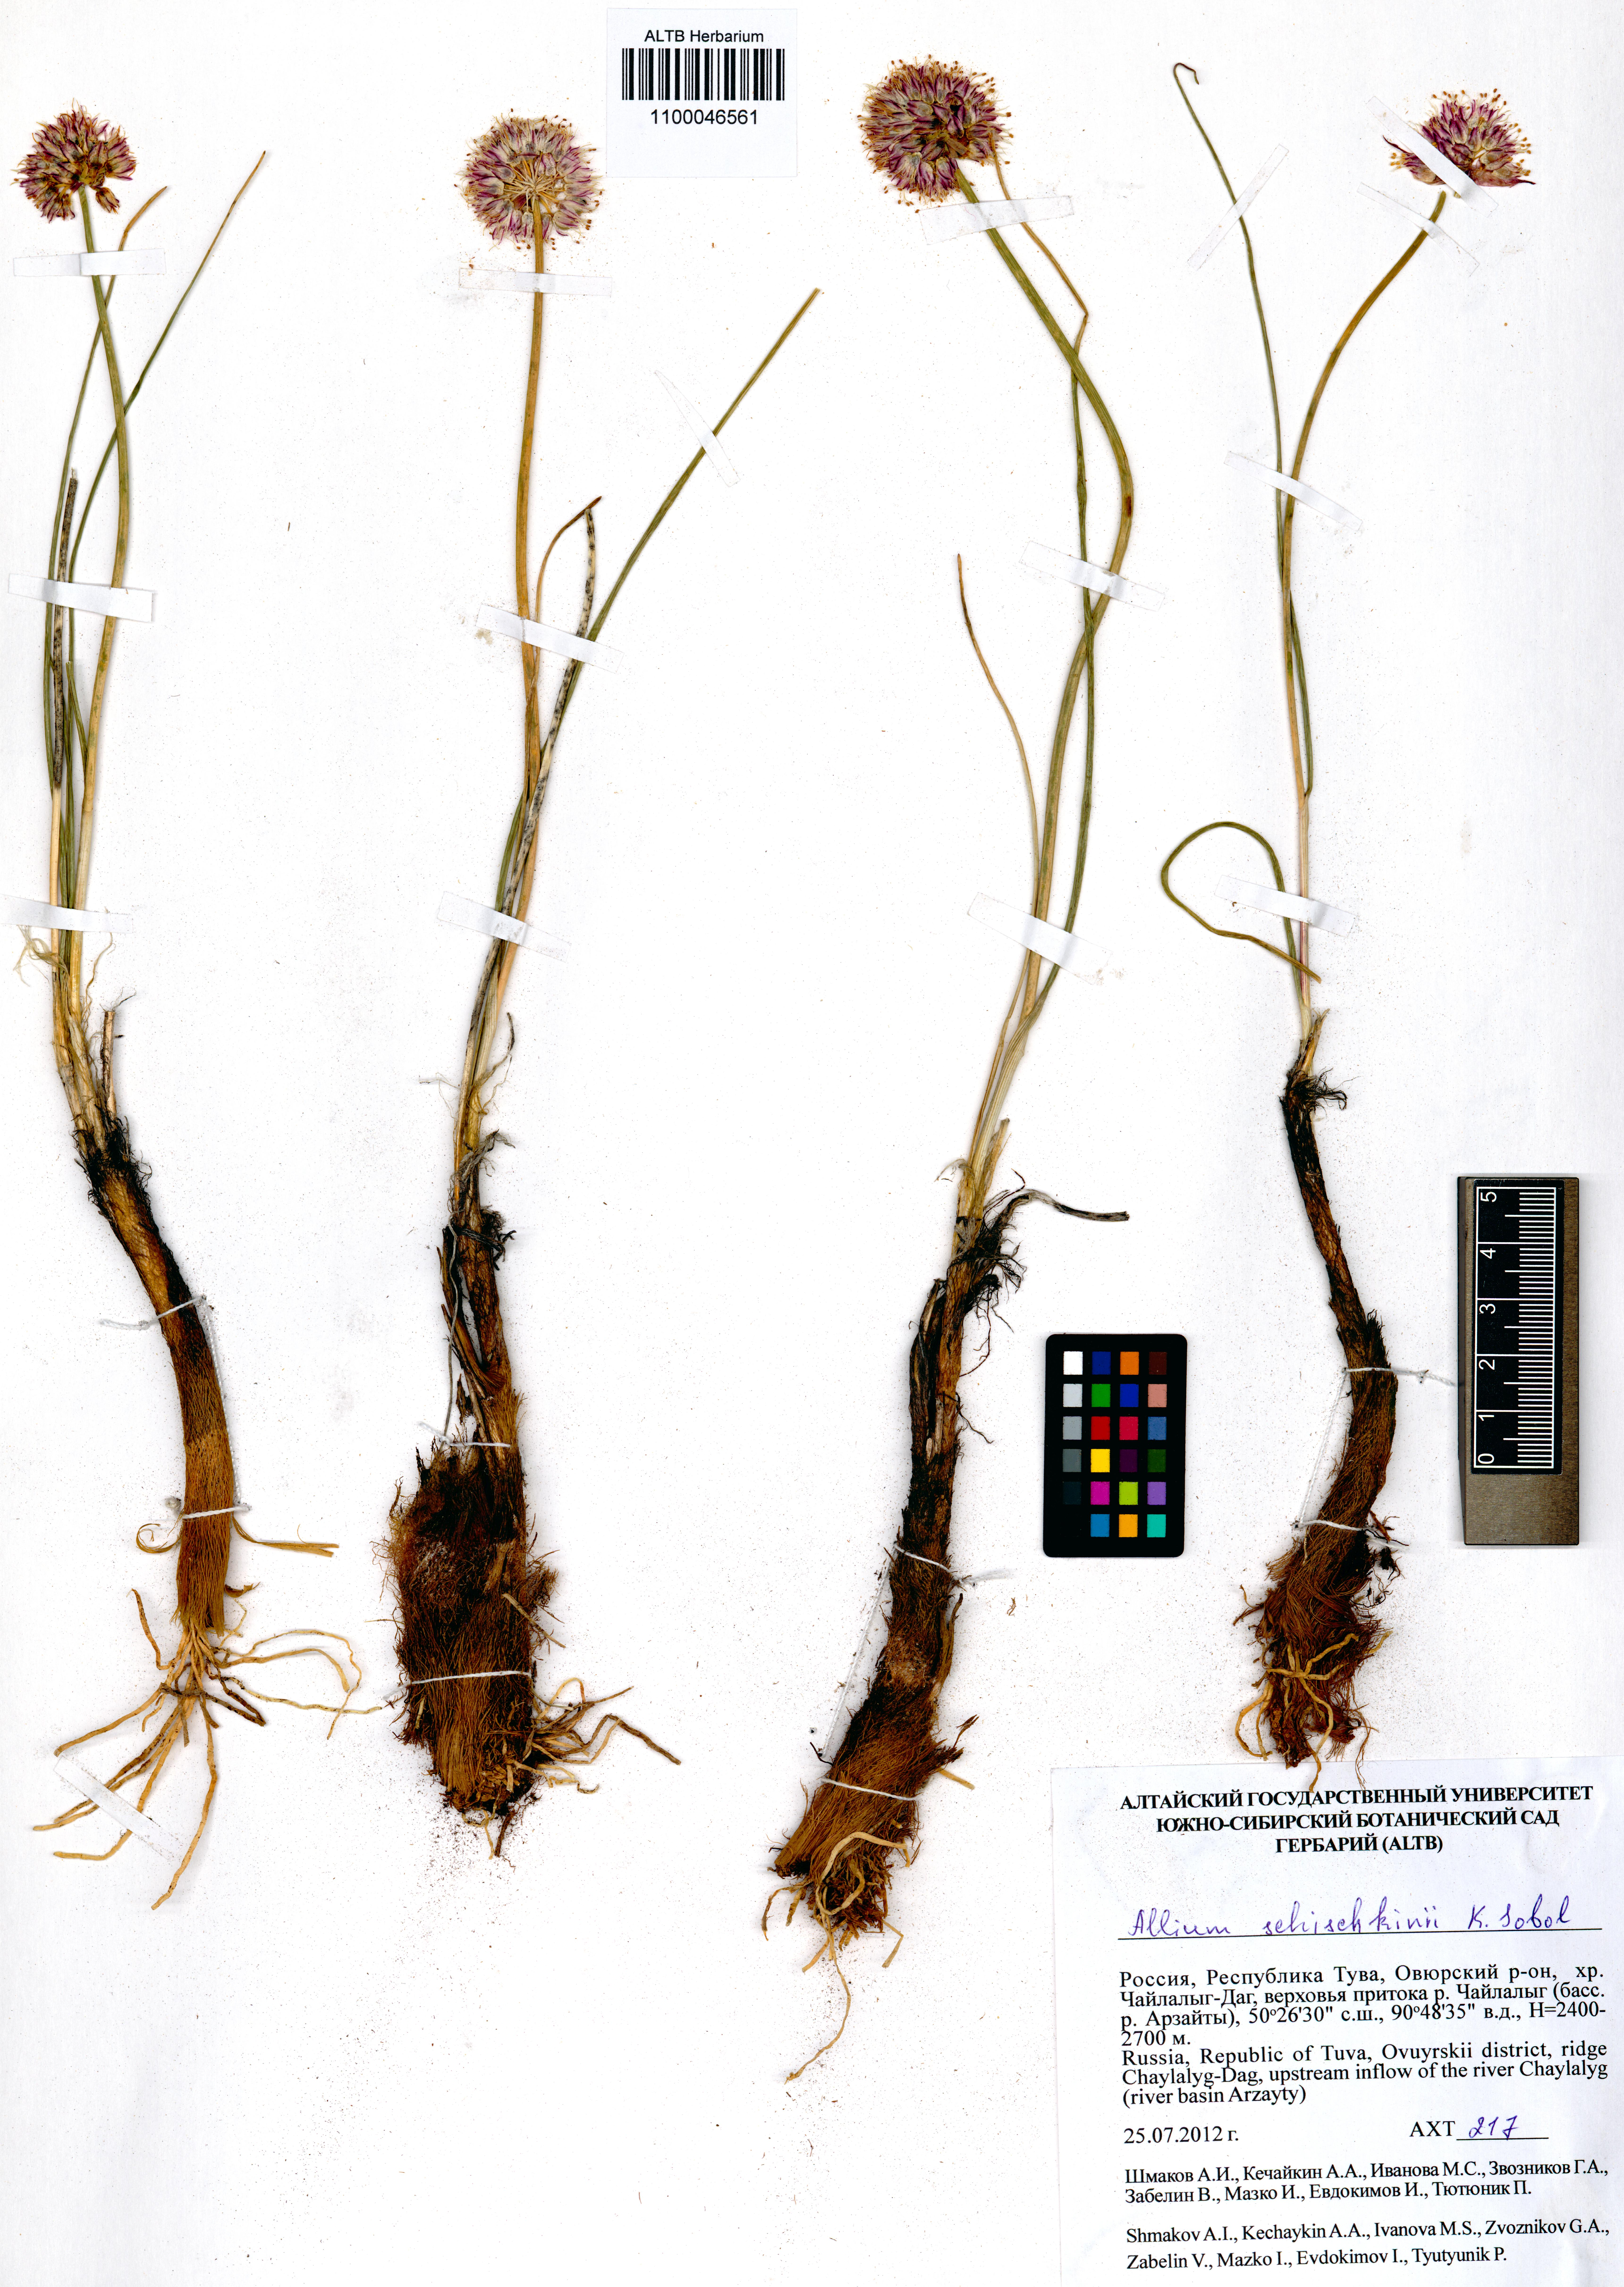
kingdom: Plantae
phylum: Tracheophyta
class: Liliopsida
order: Asparagales
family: Amaryllidaceae
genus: Allium
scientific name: Allium schischkinii
